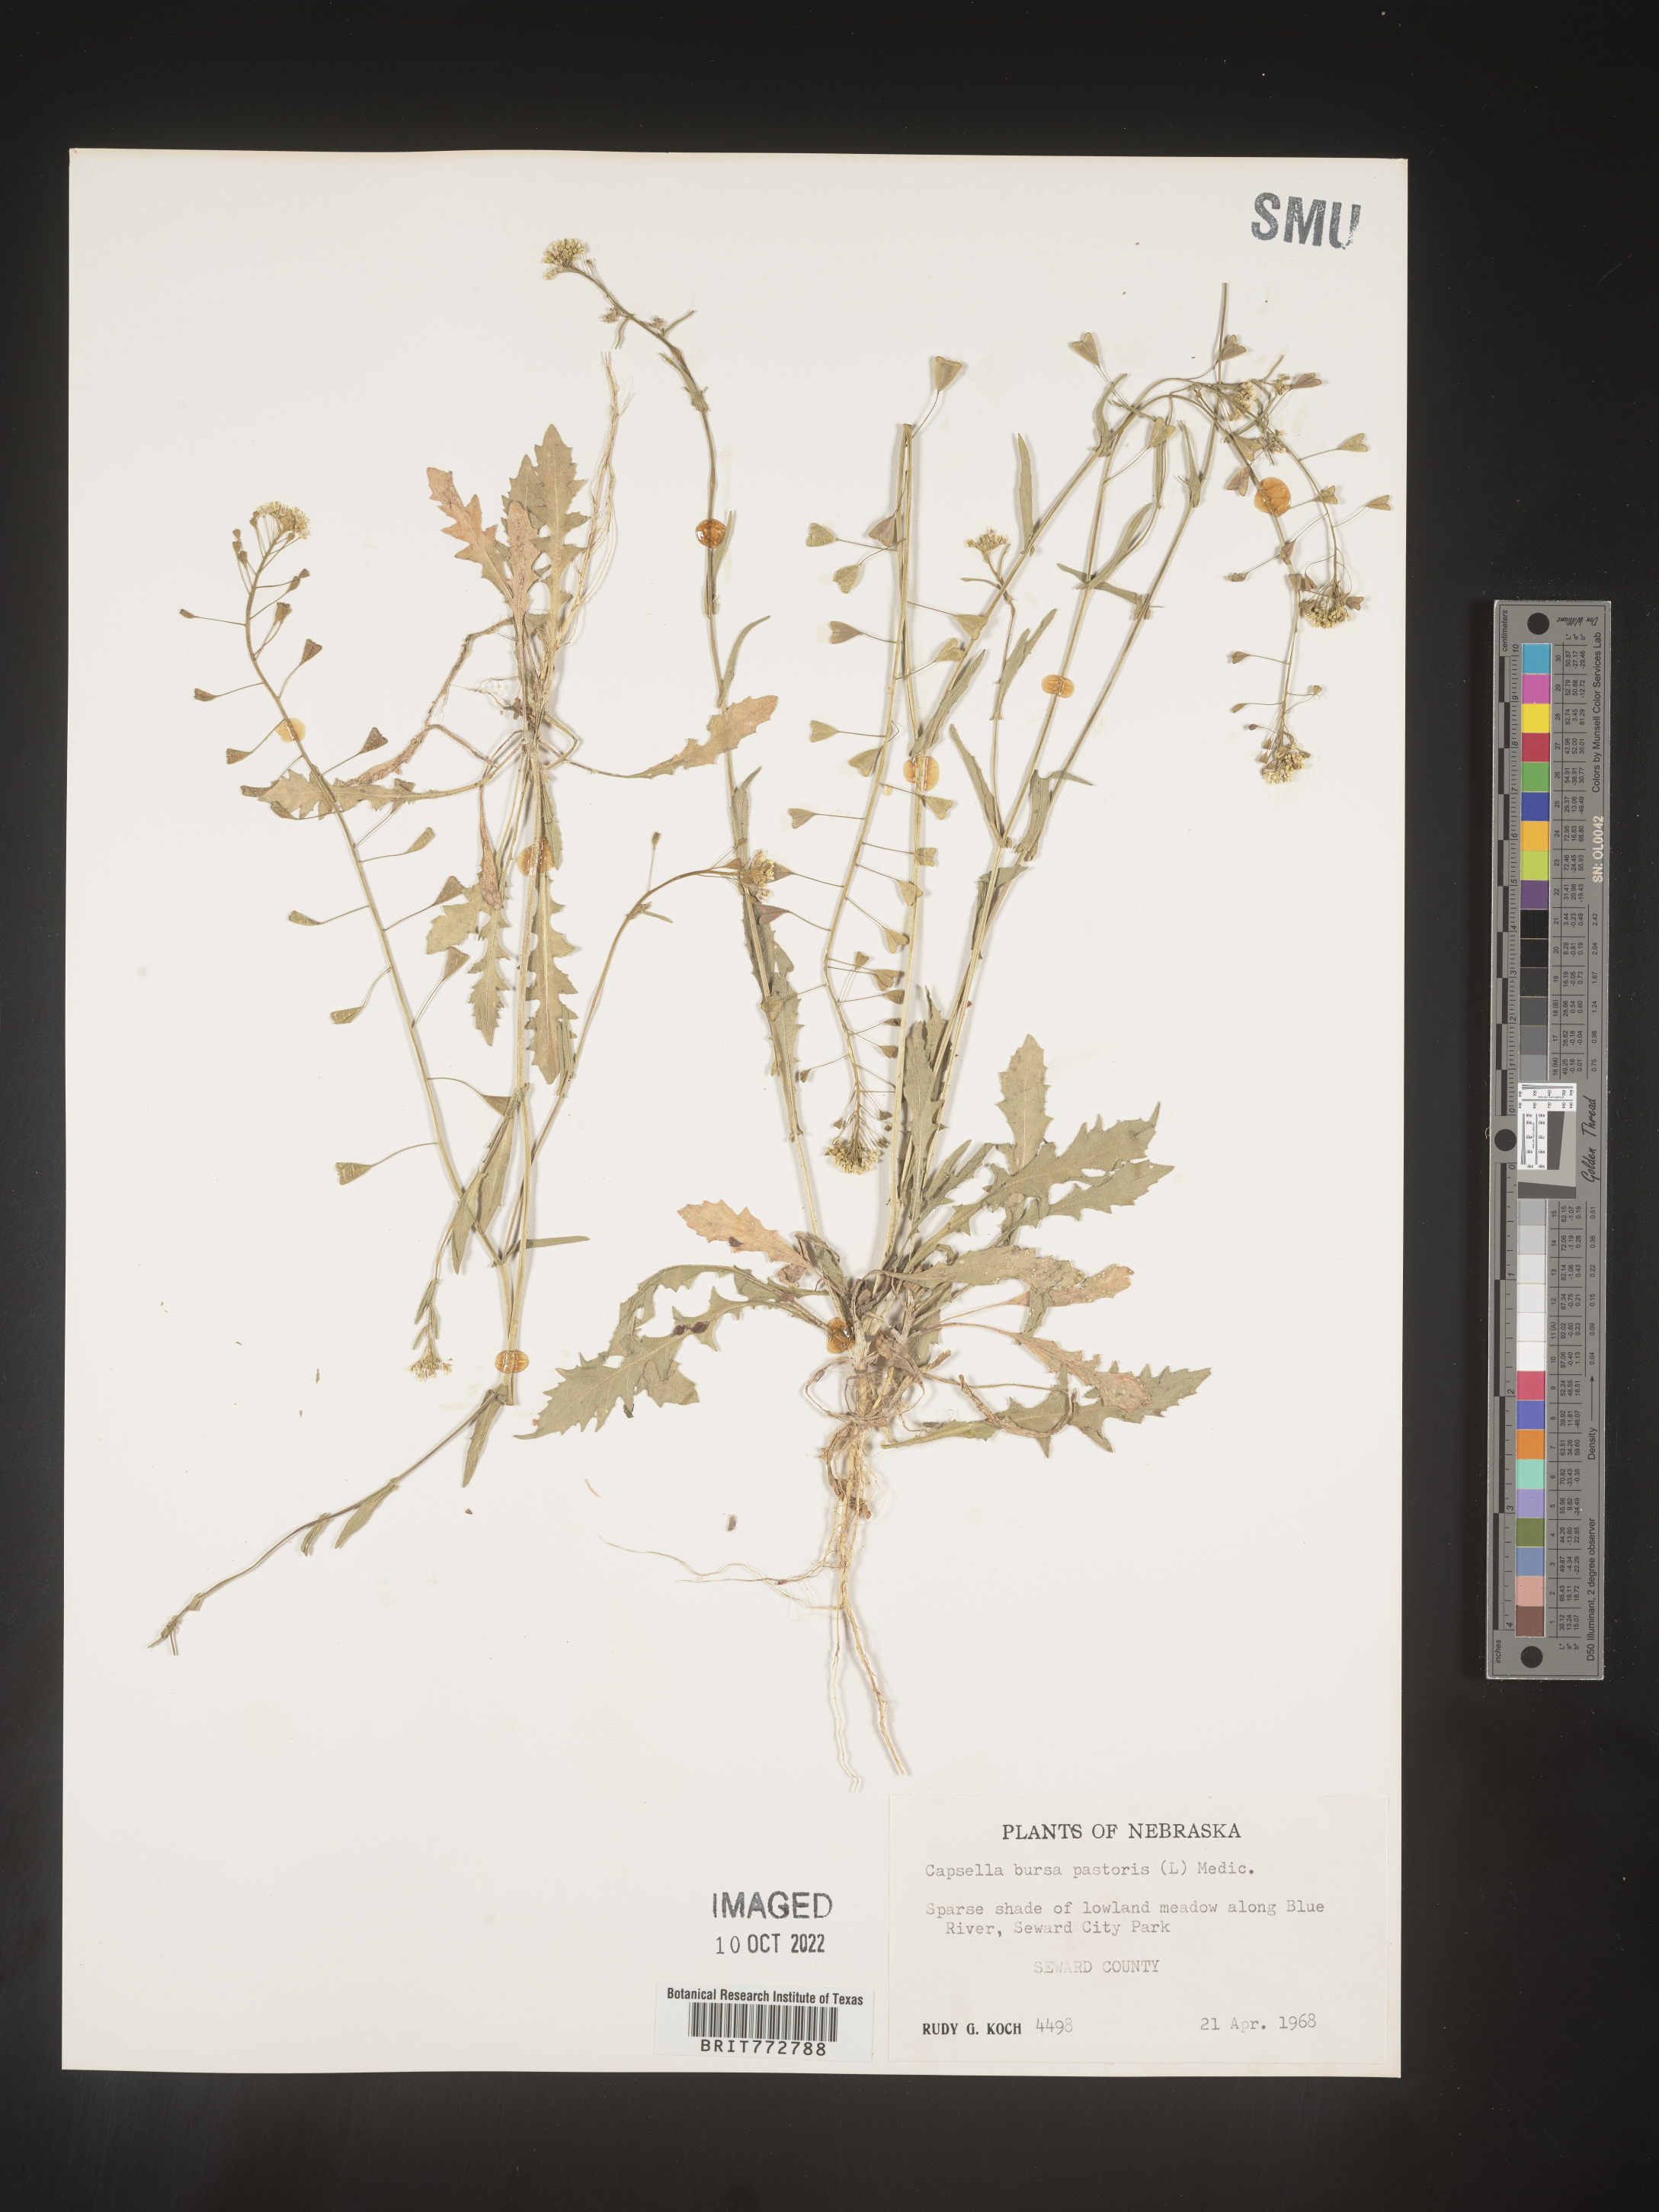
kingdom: Plantae
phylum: Tracheophyta
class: Magnoliopsida
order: Brassicales
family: Brassicaceae
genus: Capsella
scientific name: Capsella bursa-pastoris
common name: Shepherd's purse
